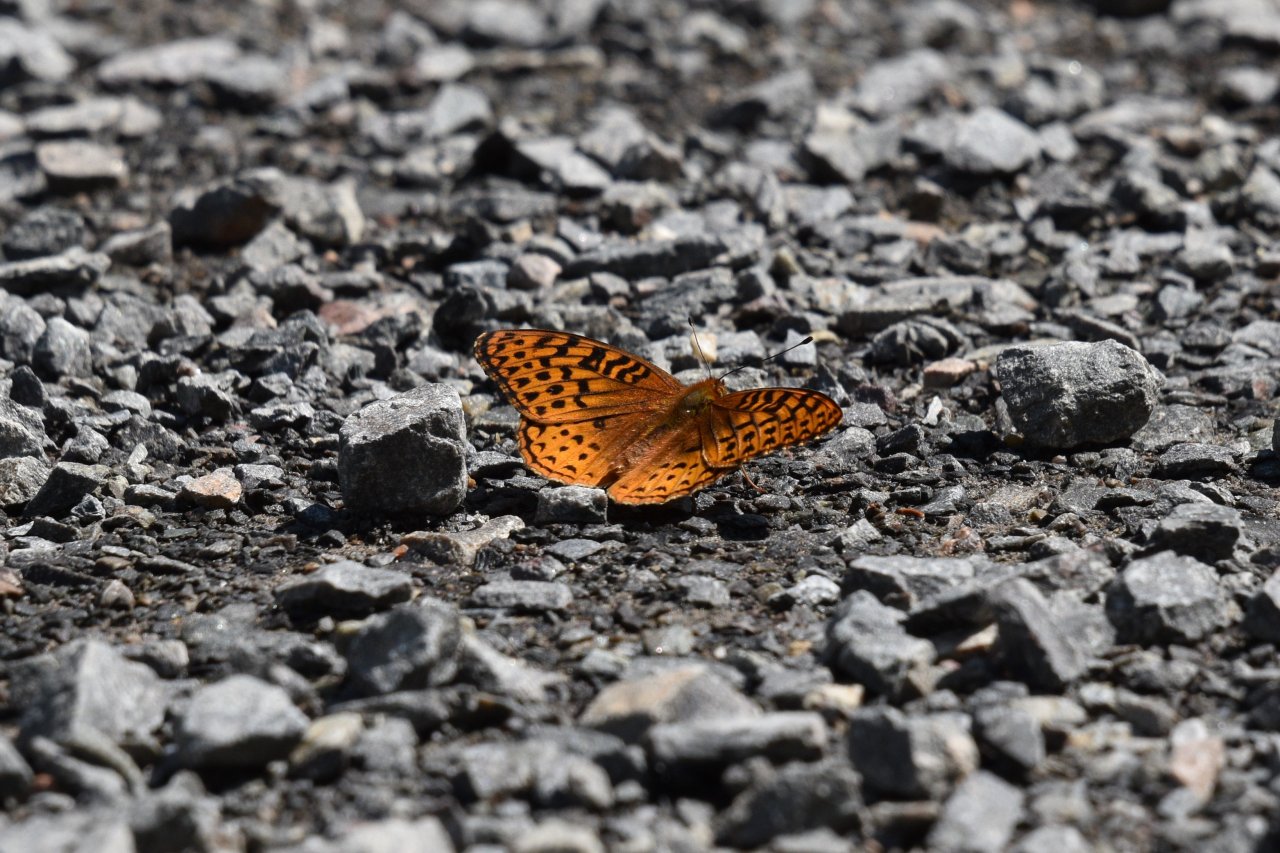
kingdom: Animalia
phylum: Arthropoda
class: Insecta
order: Lepidoptera
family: Nymphalidae
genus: Speyeria
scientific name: Speyeria cybele
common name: Great Spangled Fritillary
